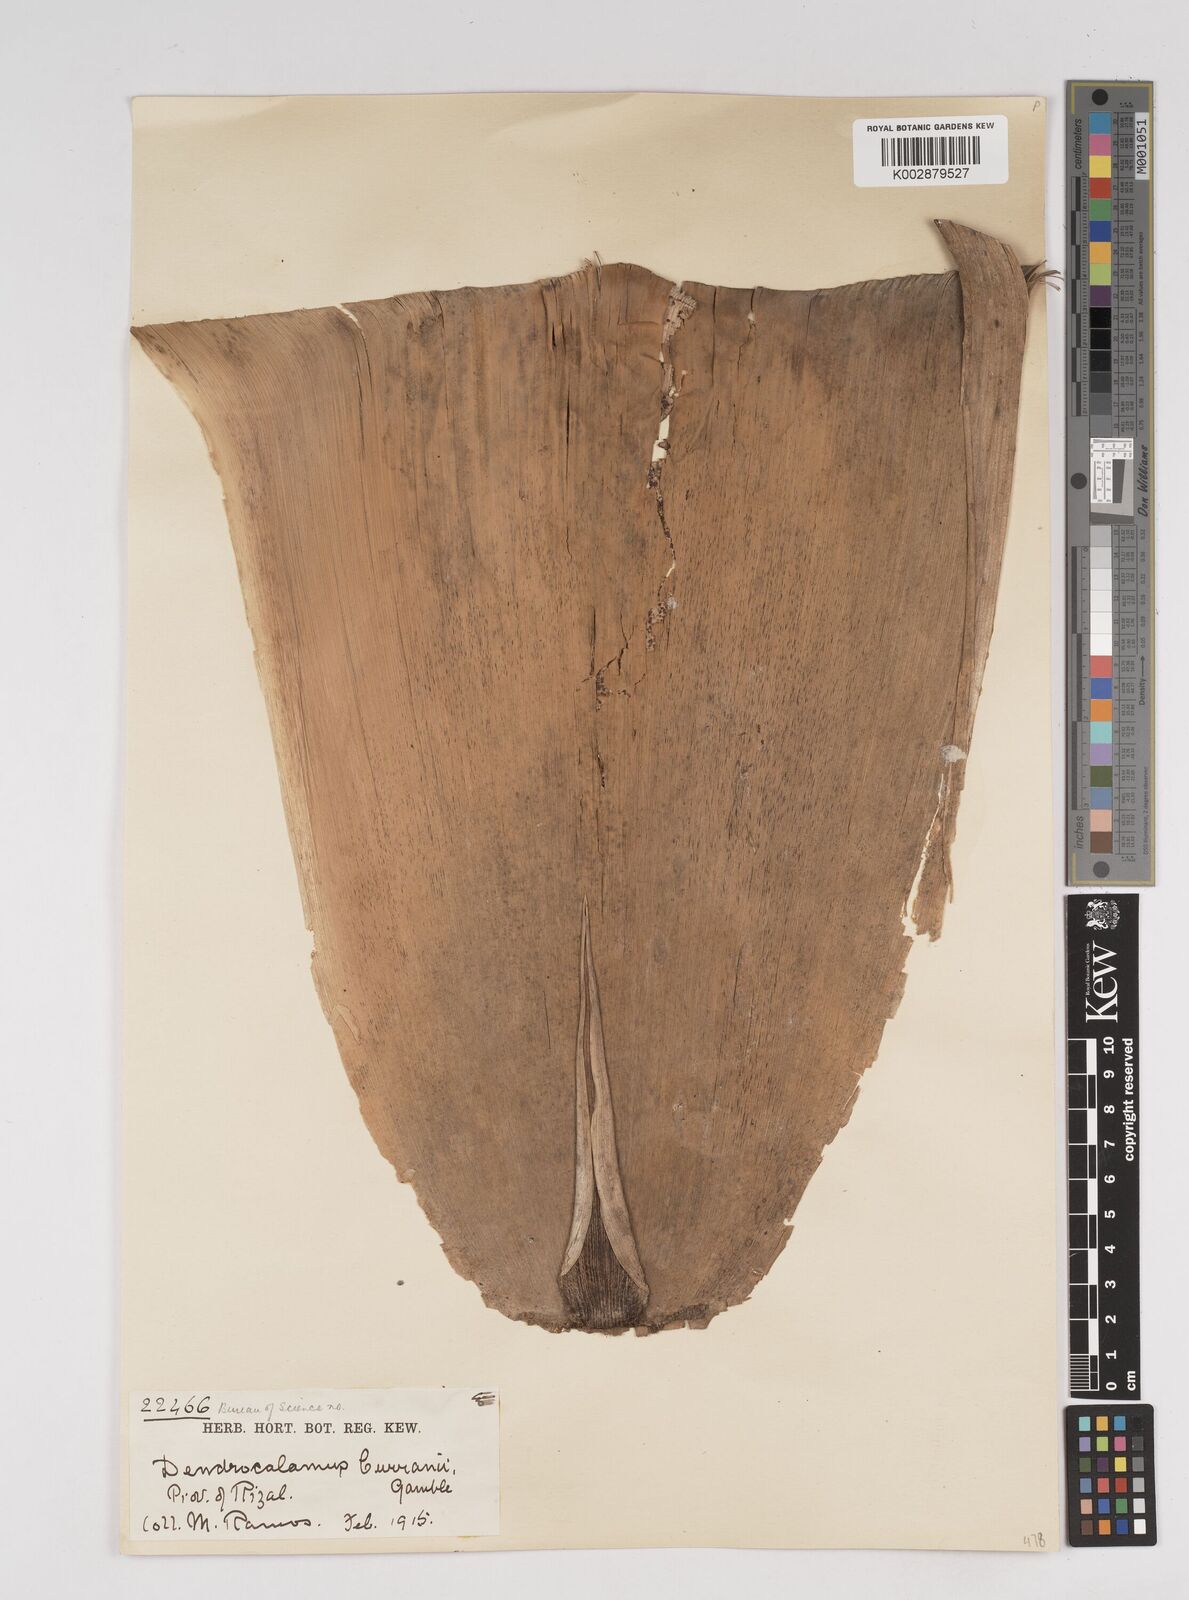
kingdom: Plantae
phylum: Tracheophyta
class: Liliopsida
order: Poales
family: Poaceae
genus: Dendrocalamus
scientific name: Dendrocalamus merrillianus
